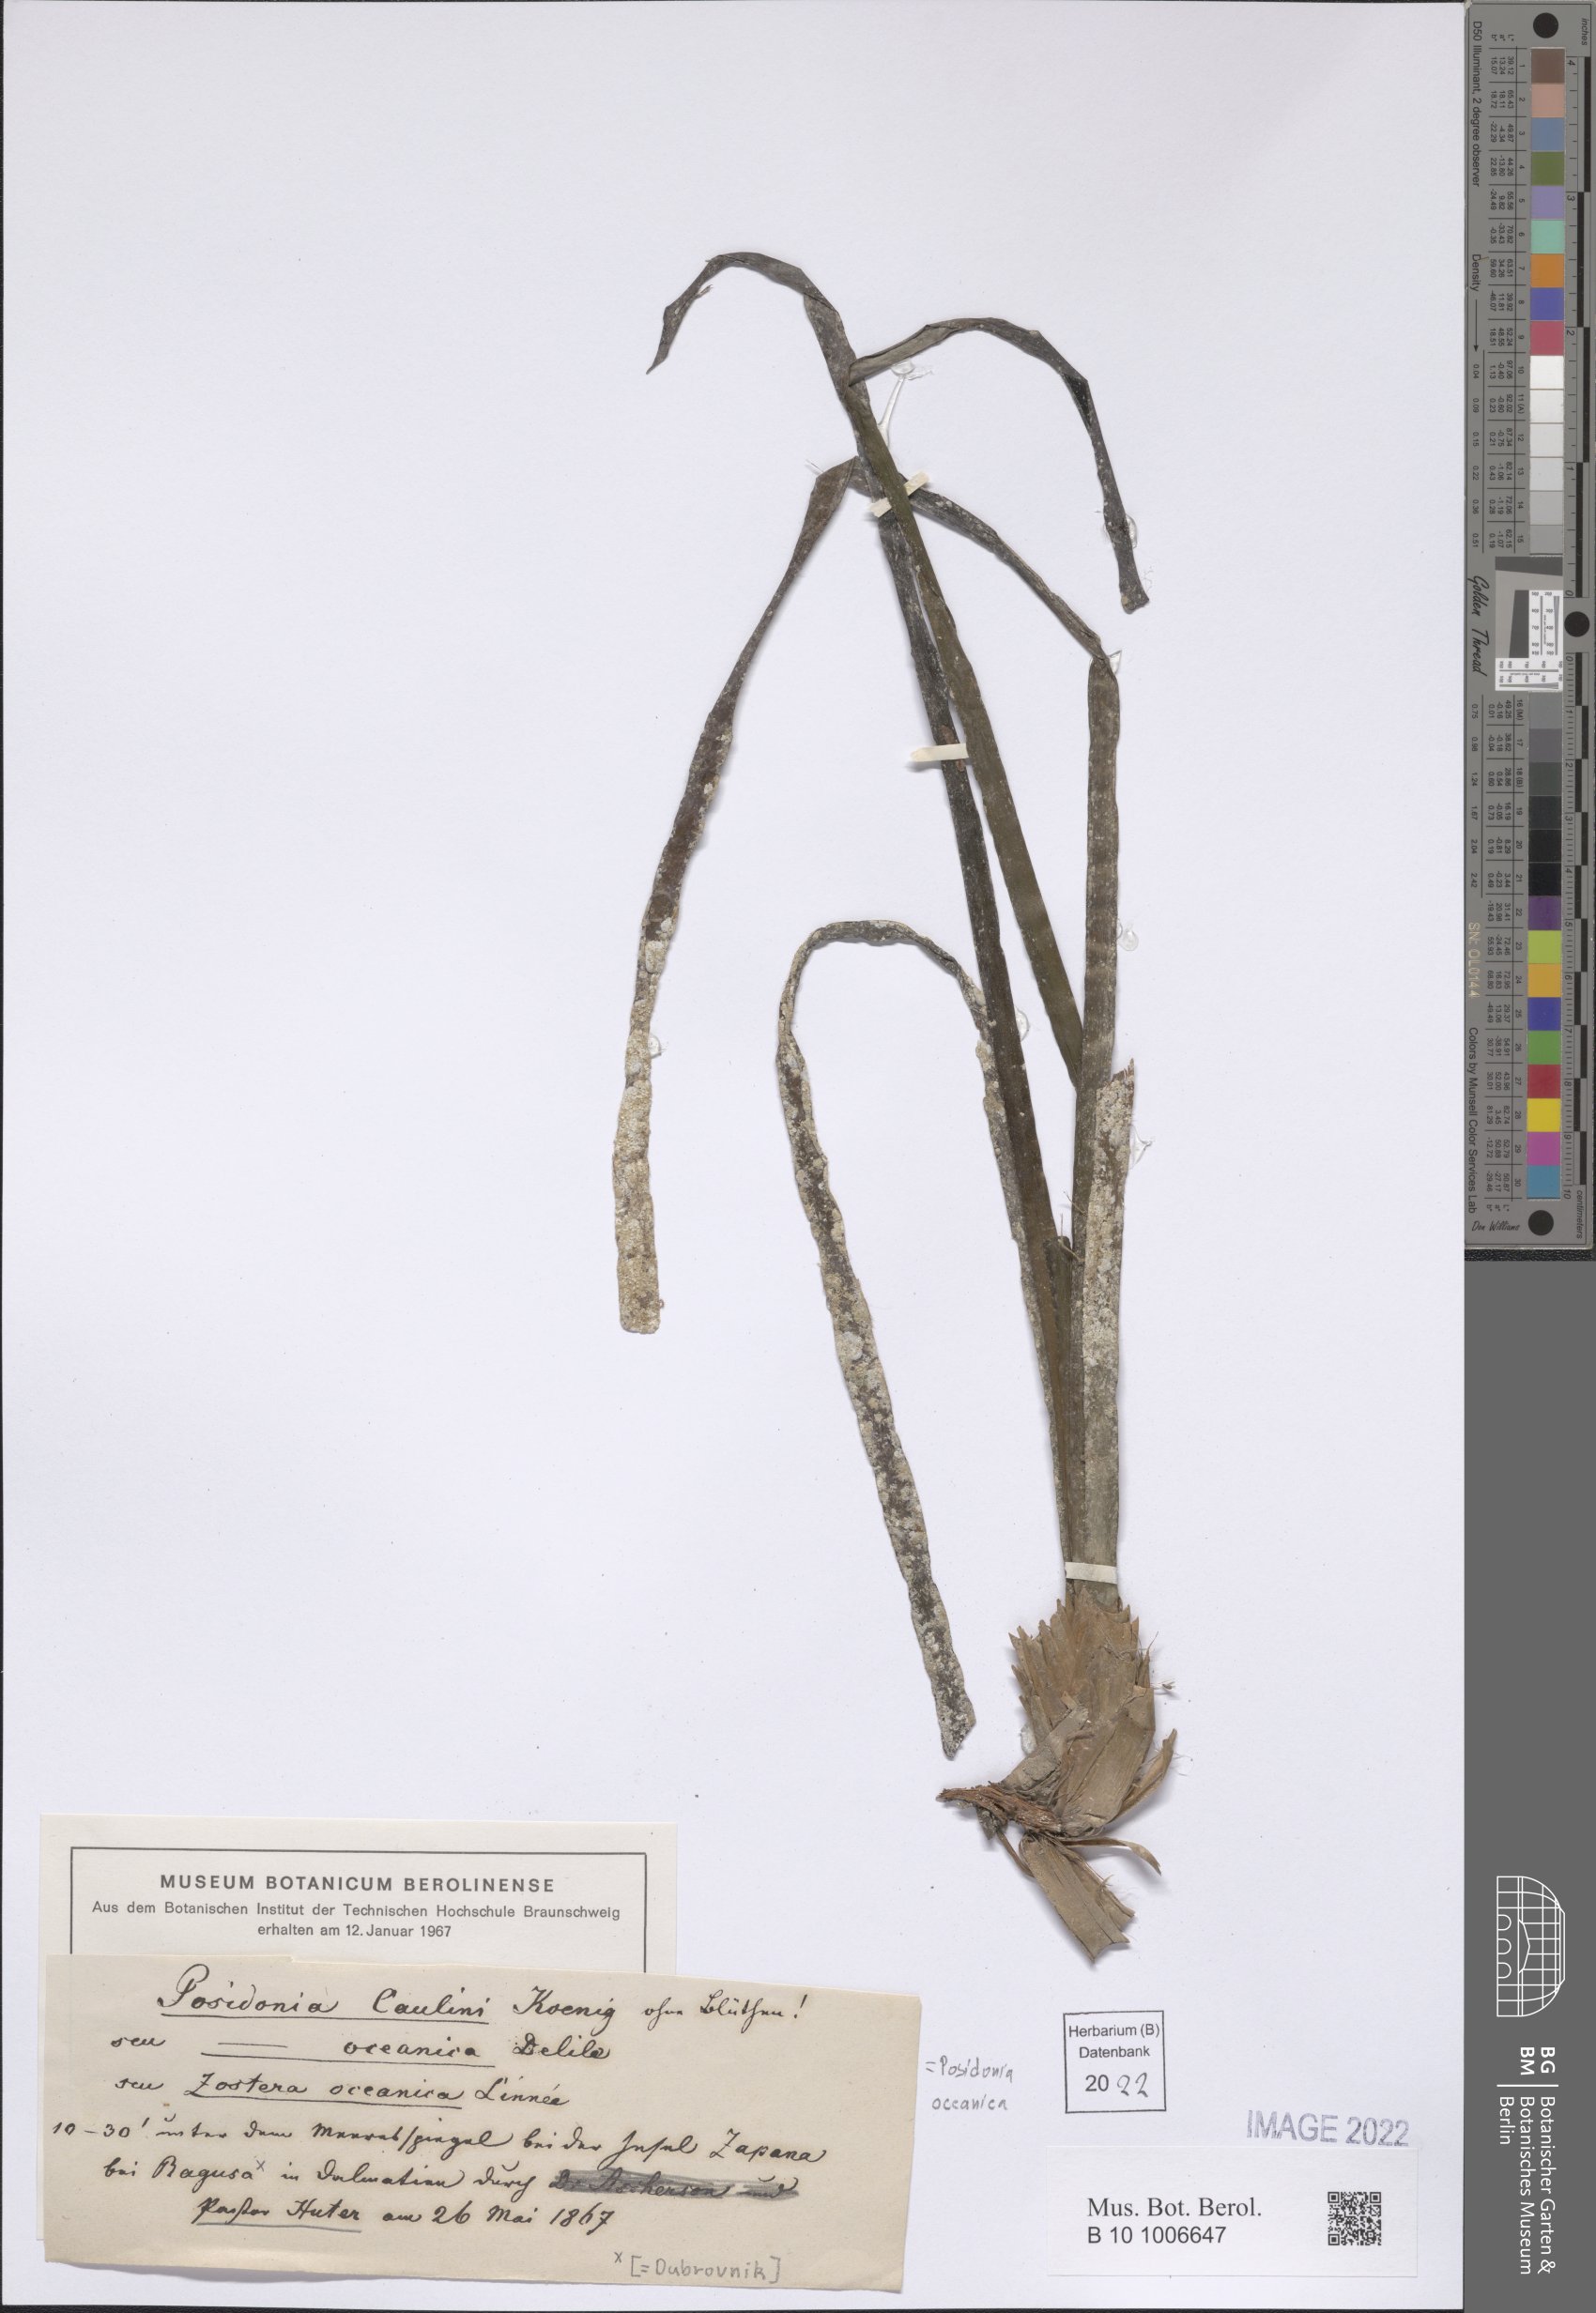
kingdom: Plantae
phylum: Tracheophyta
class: Liliopsida
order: Alismatales
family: Posidoniaceae
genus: Posidonia
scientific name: Posidonia oceanica
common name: Mediterranean tapeweed
